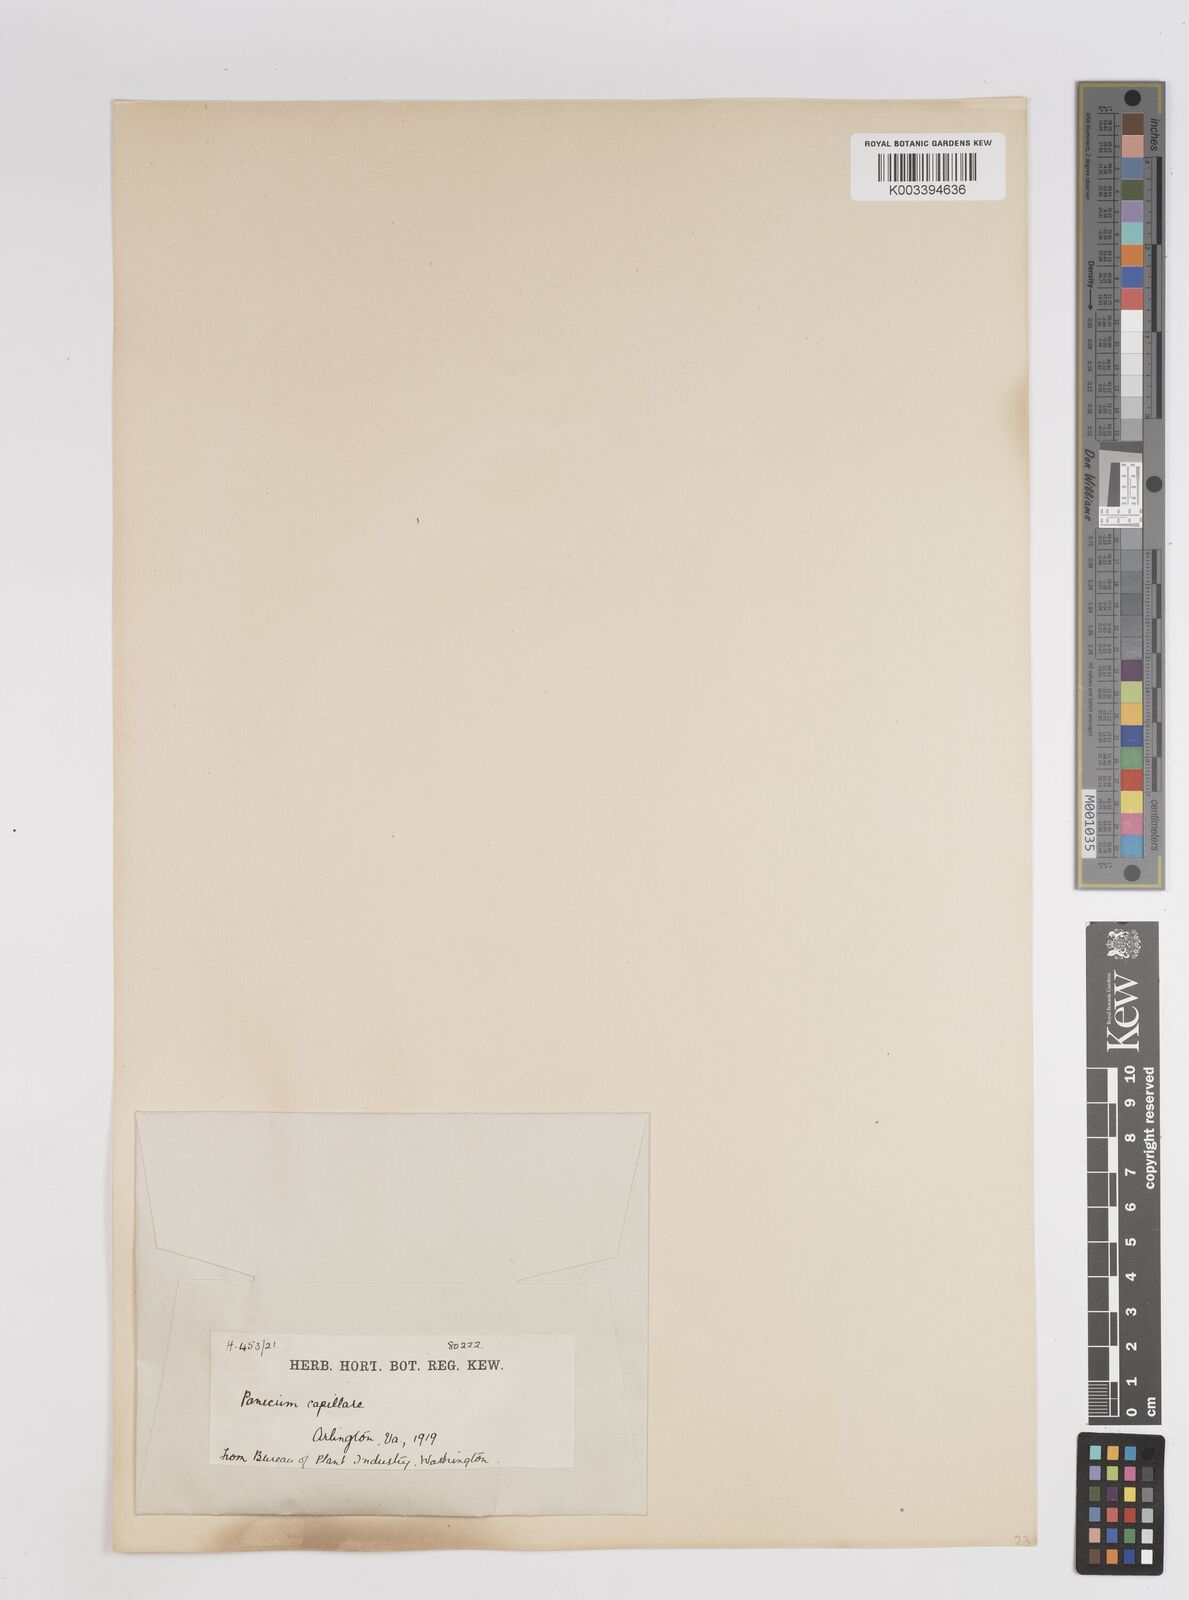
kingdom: Plantae
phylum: Tracheophyta
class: Liliopsida
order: Poales
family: Poaceae
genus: Panicum
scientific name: Panicum capillare
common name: Witch-grass
